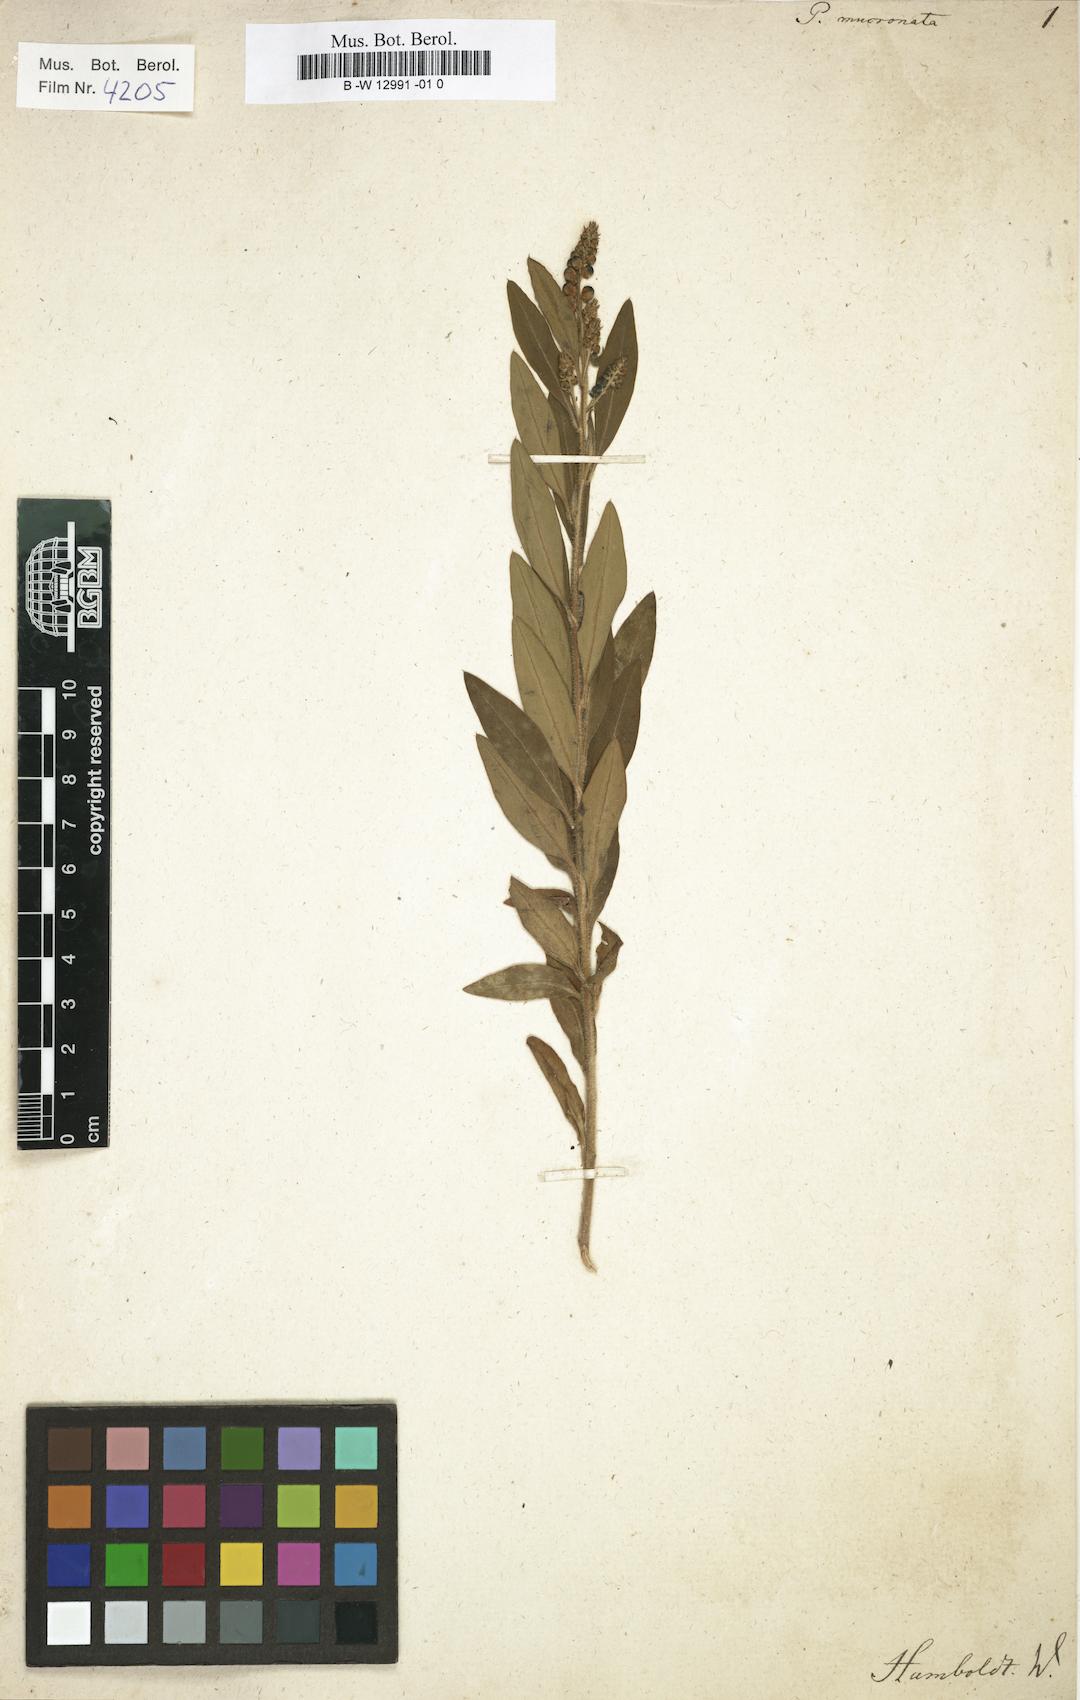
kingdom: Plantae
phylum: Tracheophyta
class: Magnoliopsida
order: Fabales
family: Polygalaceae
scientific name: Polygalaceae
